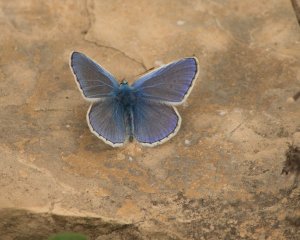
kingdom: Animalia
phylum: Arthropoda
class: Insecta
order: Lepidoptera
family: Lycaenidae
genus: Polyommatus
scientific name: Polyommatus icarus
